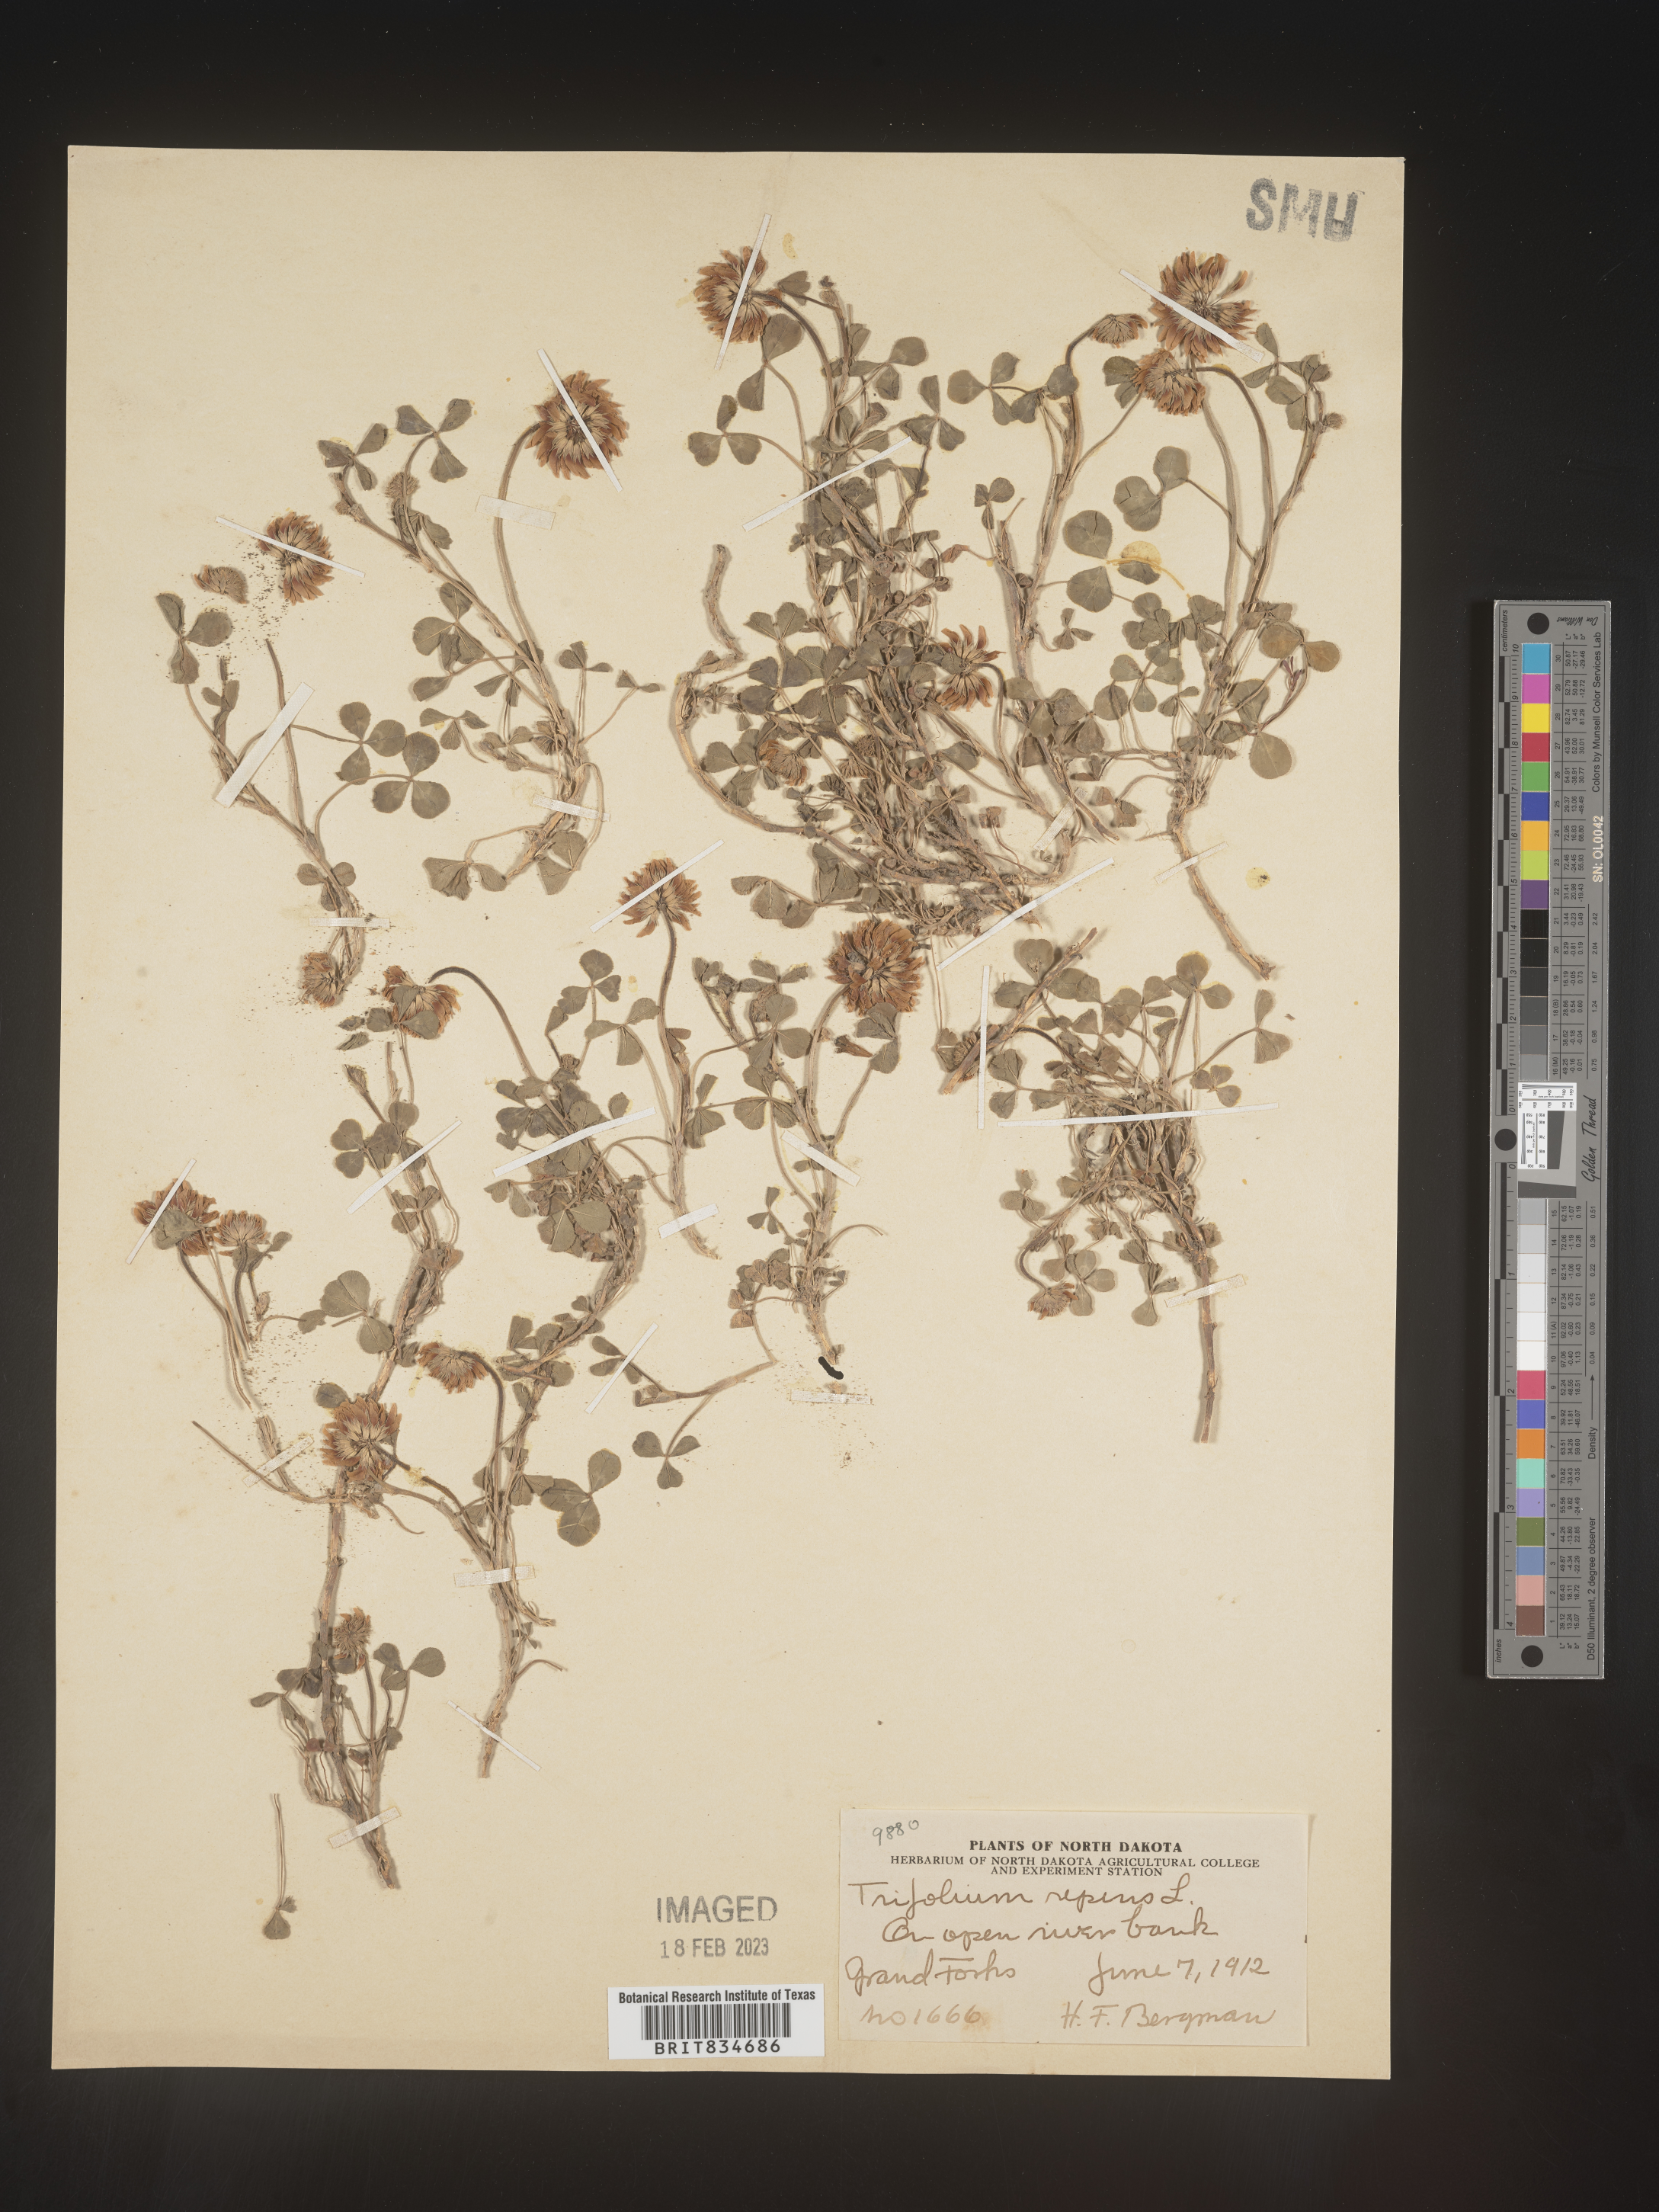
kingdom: Plantae
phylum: Tracheophyta
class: Magnoliopsida
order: Fabales
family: Fabaceae
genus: Trifolium
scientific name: Trifolium repens
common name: White clover
